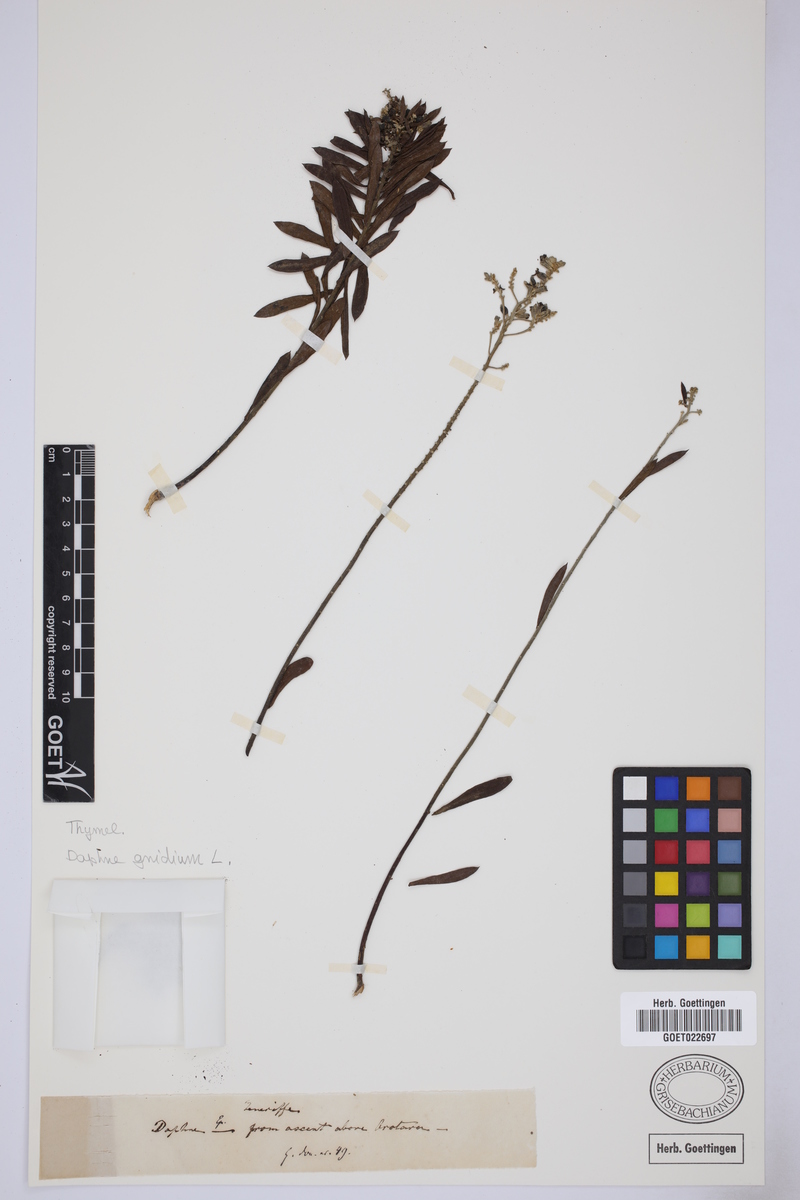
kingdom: Plantae
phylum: Tracheophyta
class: Magnoliopsida
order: Malvales
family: Thymelaeaceae
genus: Daphne
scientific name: Daphne gnidium
